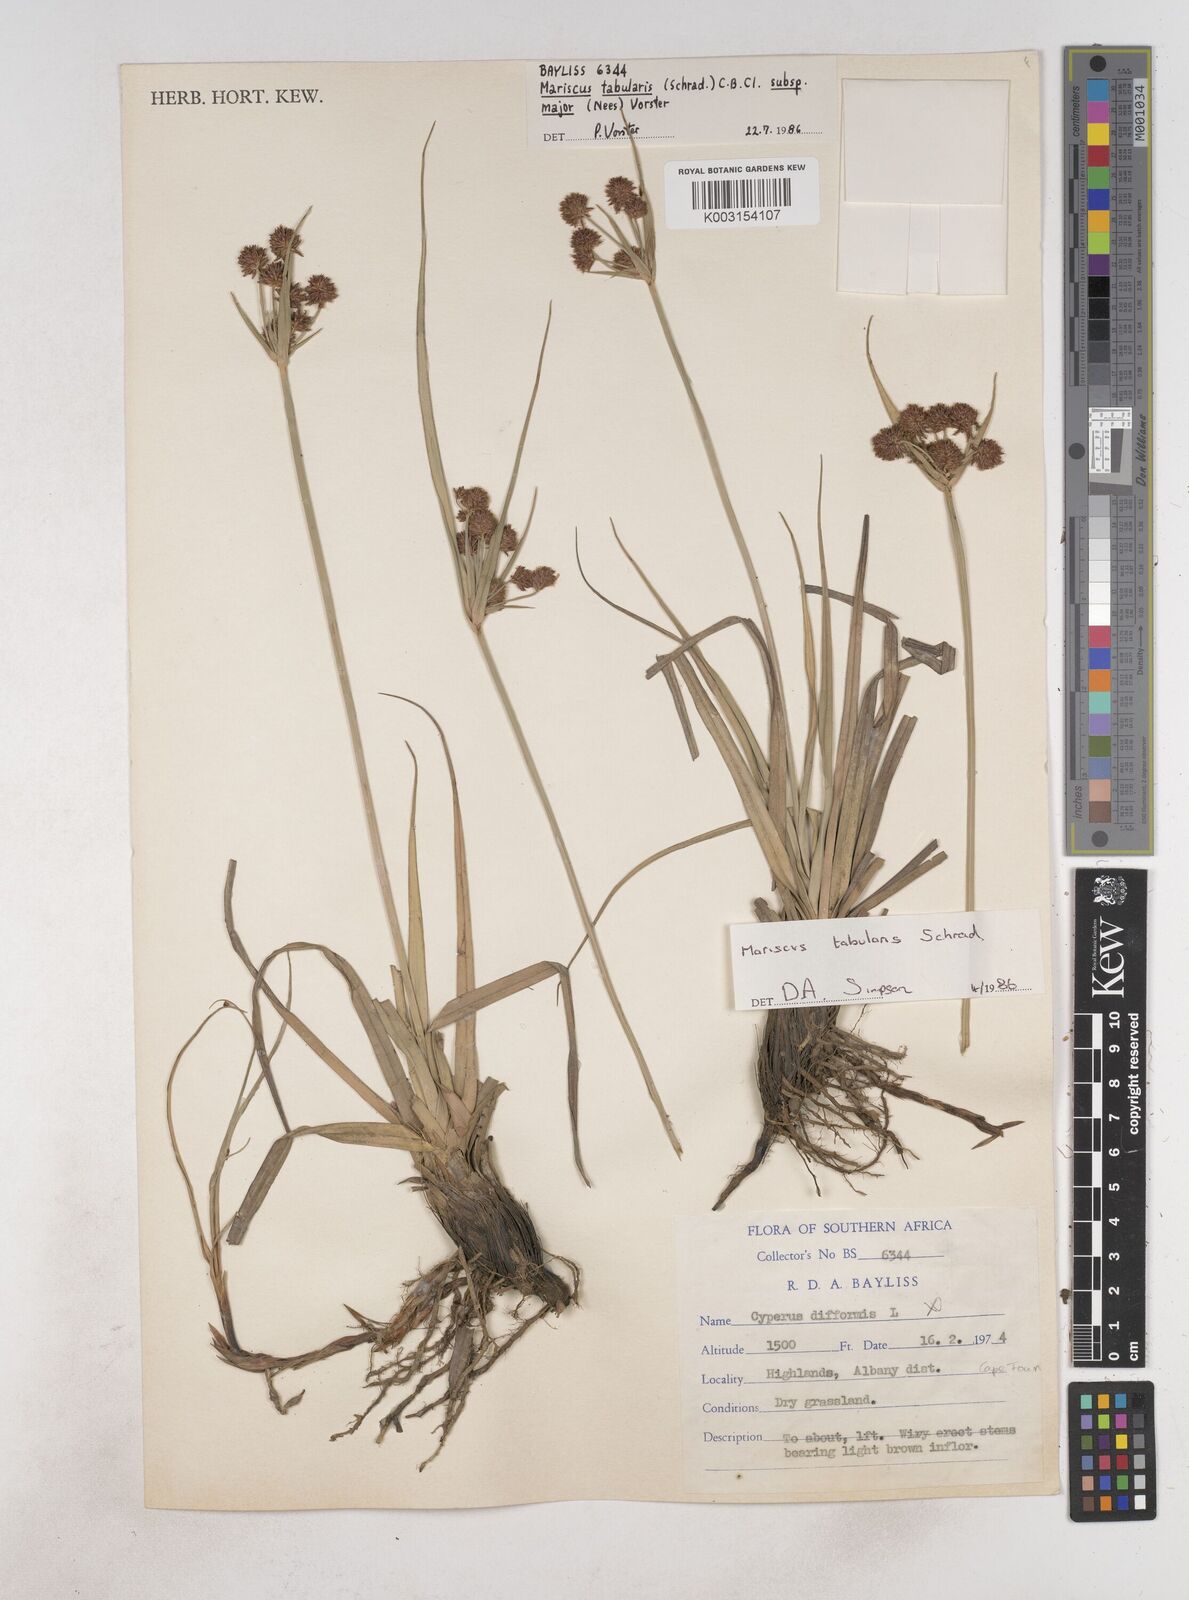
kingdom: Plantae
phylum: Tracheophyta
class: Liliopsida
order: Poales
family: Cyperaceae
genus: Cyperus
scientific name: Cyperus tabularis
